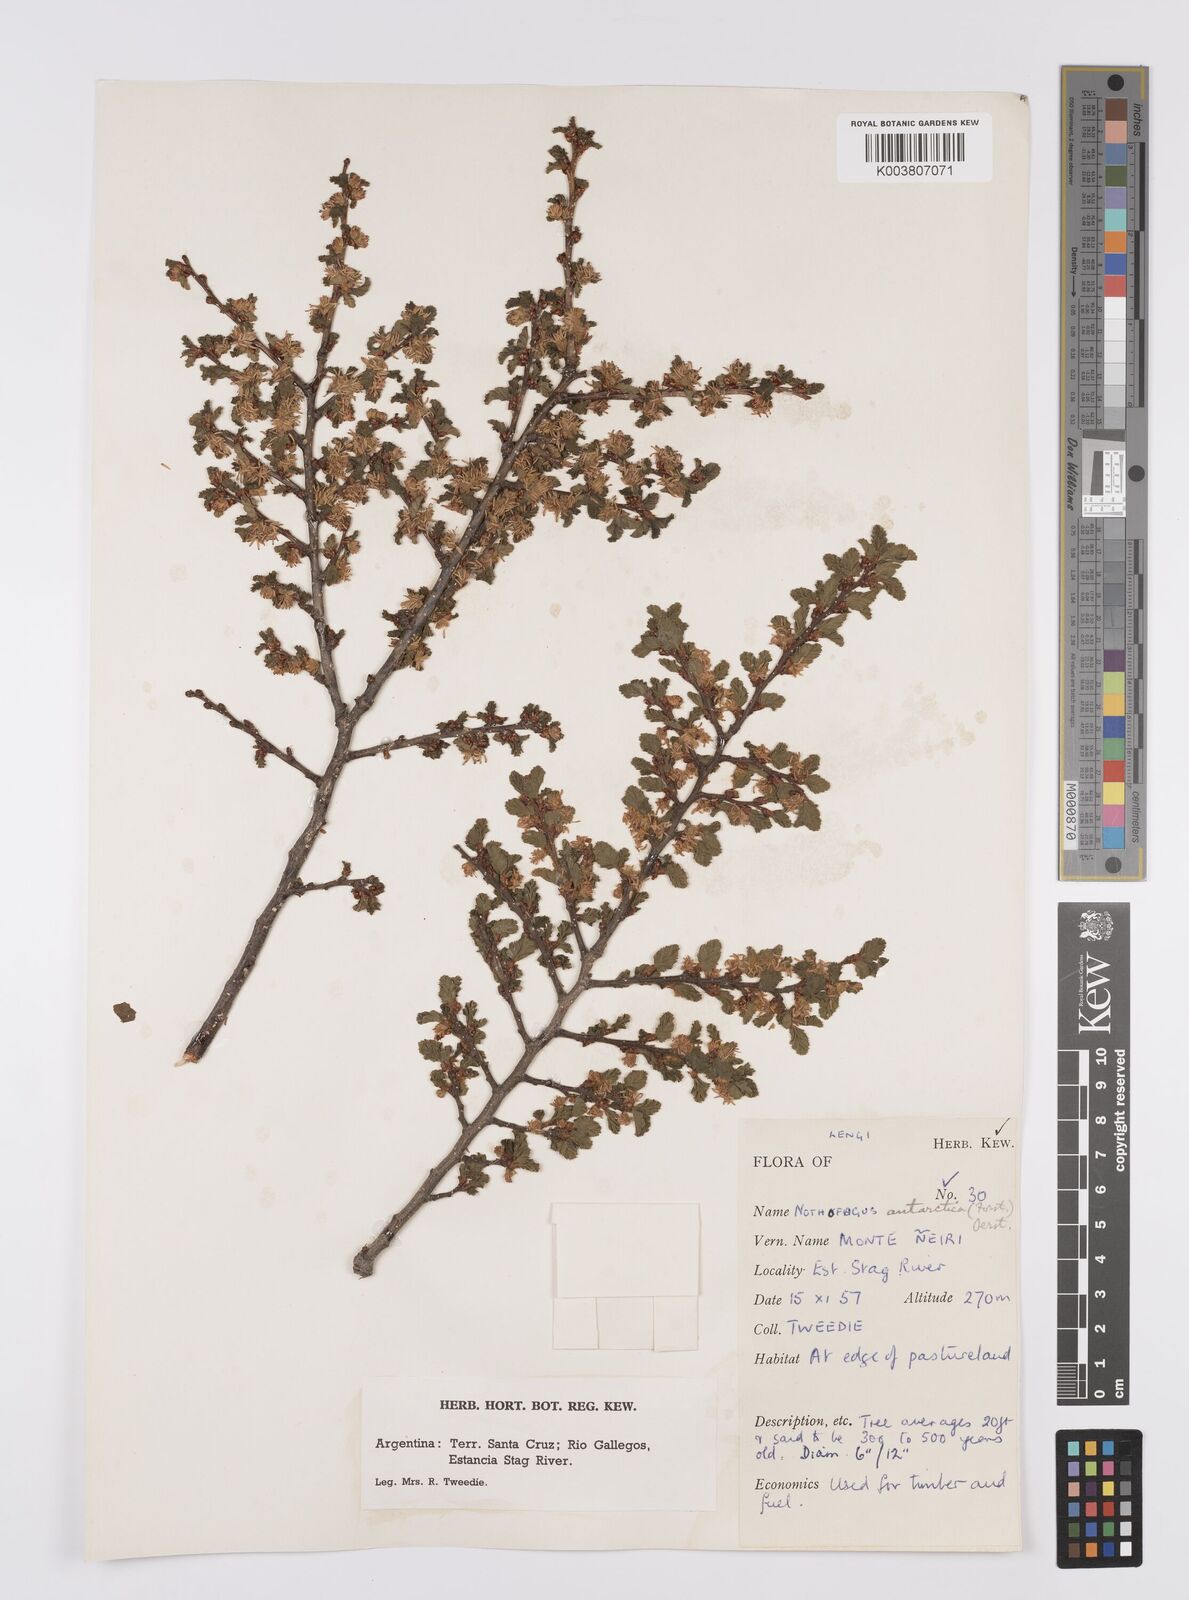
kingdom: Plantae
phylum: Tracheophyta
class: Magnoliopsida
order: Fagales
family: Nothofagaceae
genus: Nothofagus
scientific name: Nothofagus antarctica
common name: Antarctic beech
